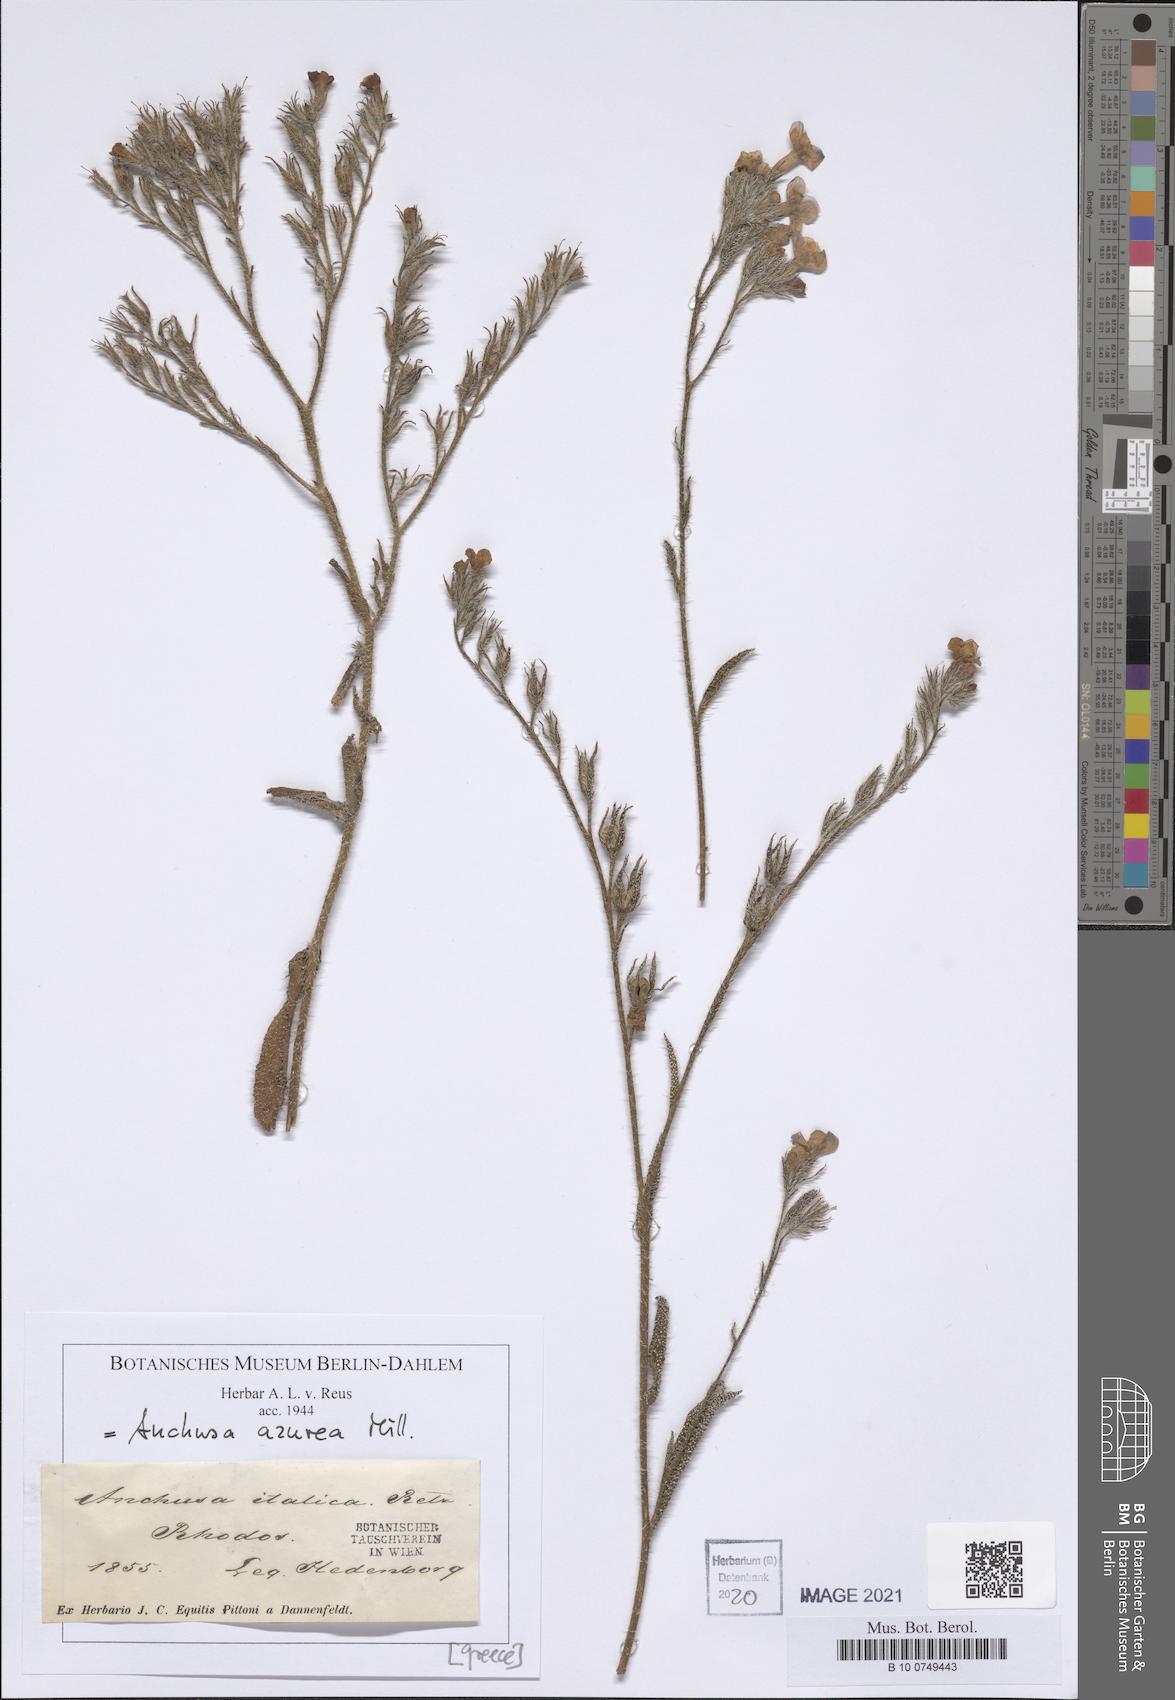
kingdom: Plantae
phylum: Tracheophyta
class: Magnoliopsida
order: Boraginales
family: Boraginaceae
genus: Anchusa
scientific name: Anchusa azurea
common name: Garden anchusa
